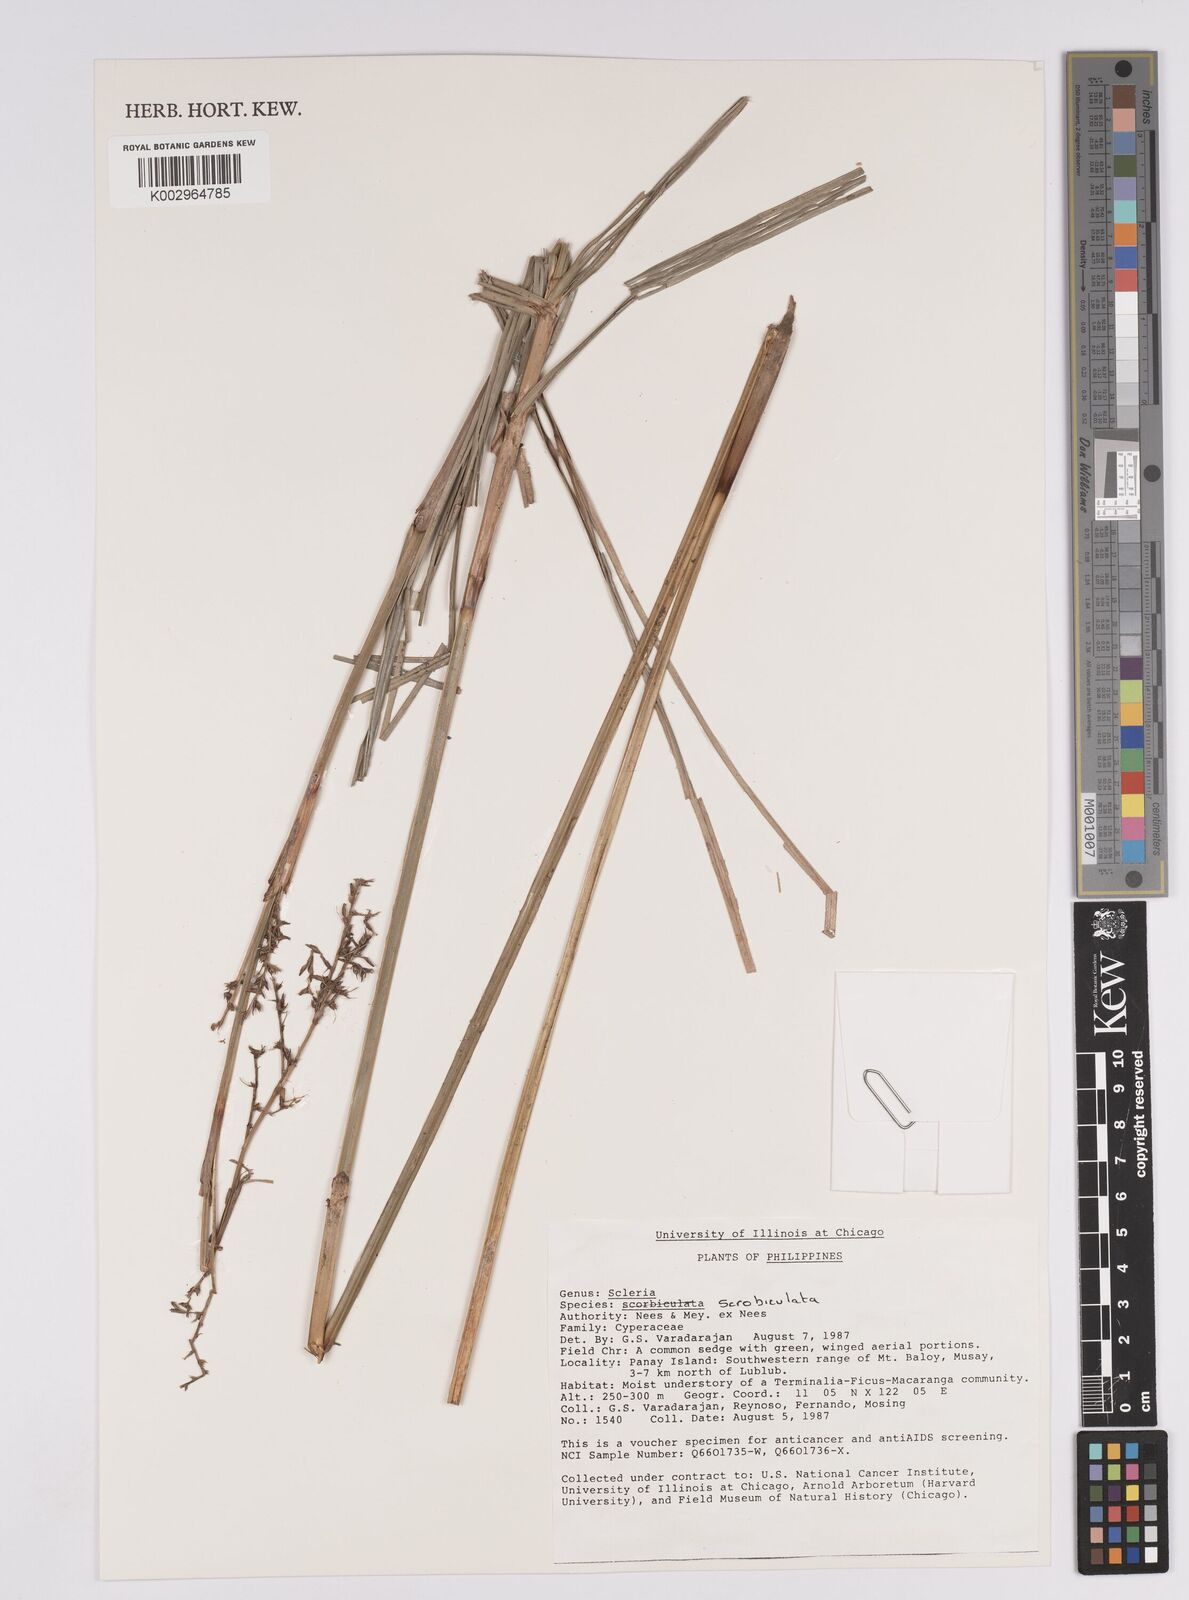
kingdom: Plantae
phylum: Tracheophyta
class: Liliopsida
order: Poales
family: Cyperaceae
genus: Scleria
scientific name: Scleria scrobiculata
